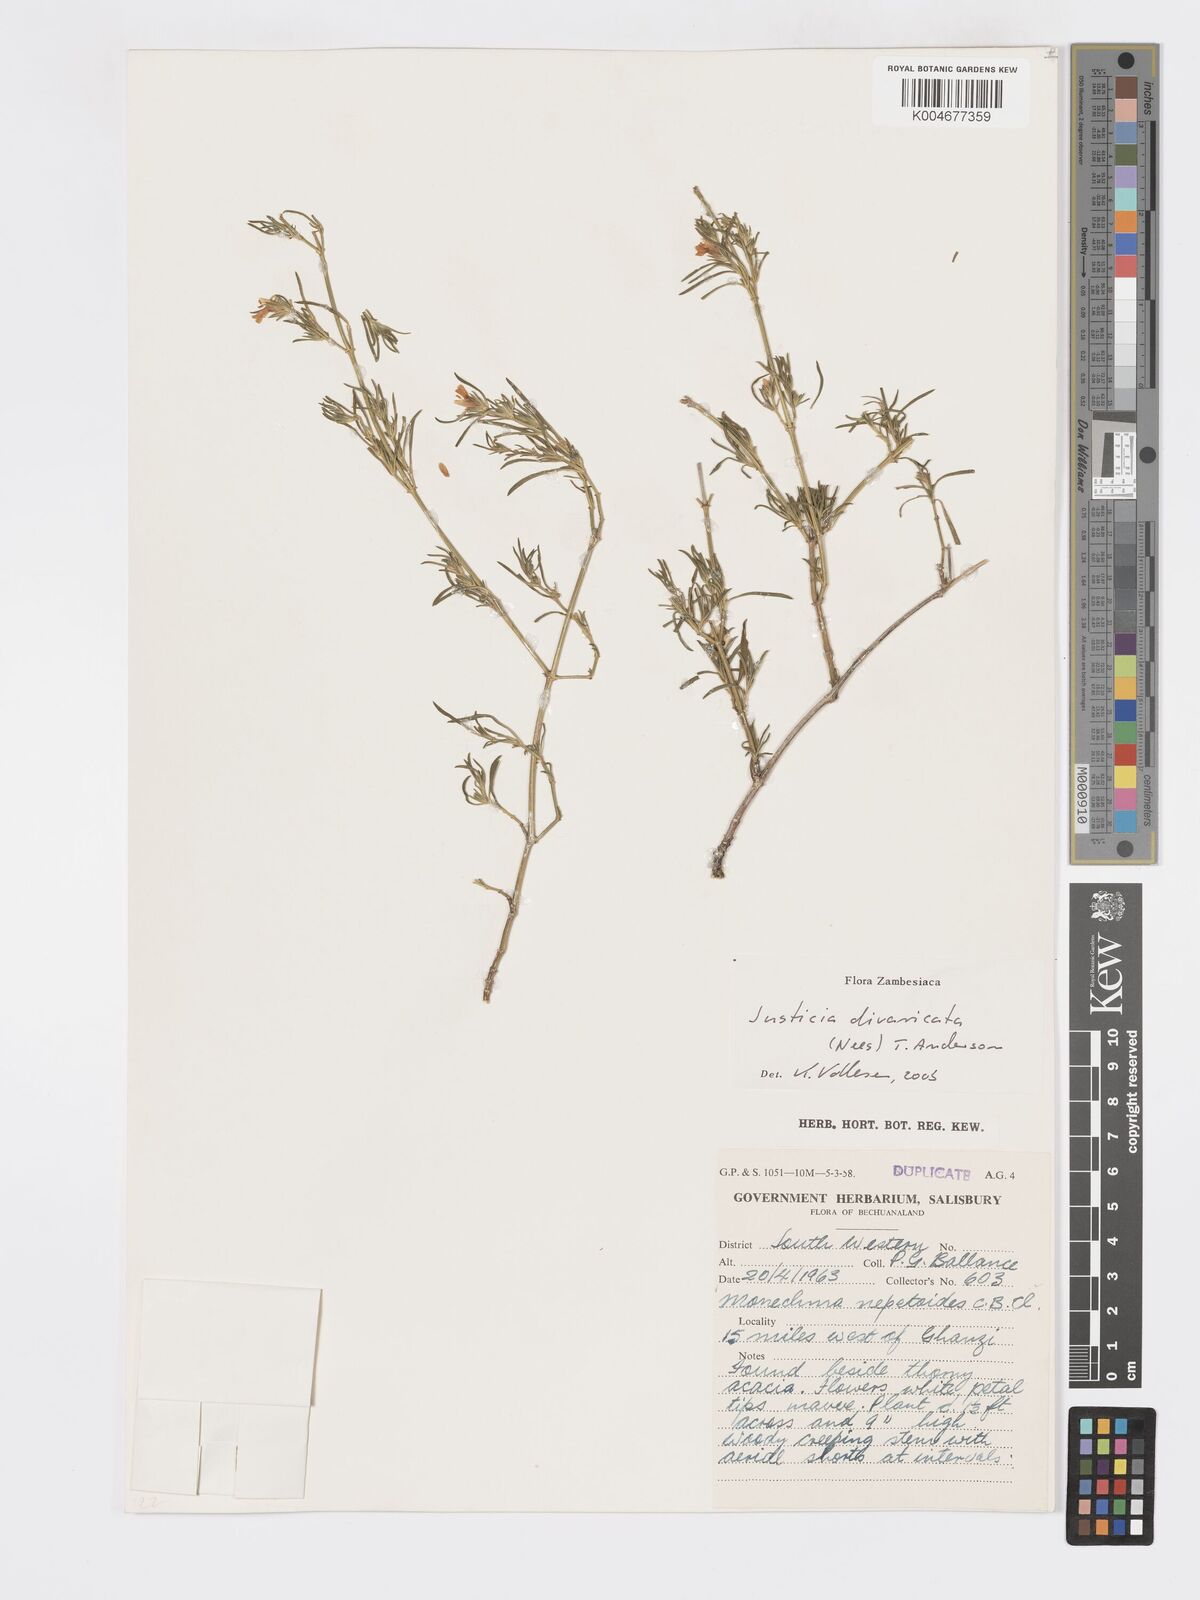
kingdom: Plantae
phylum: Tracheophyta
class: Magnoliopsida
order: Lamiales
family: Acanthaceae
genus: Pogonospermum
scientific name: Pogonospermum
